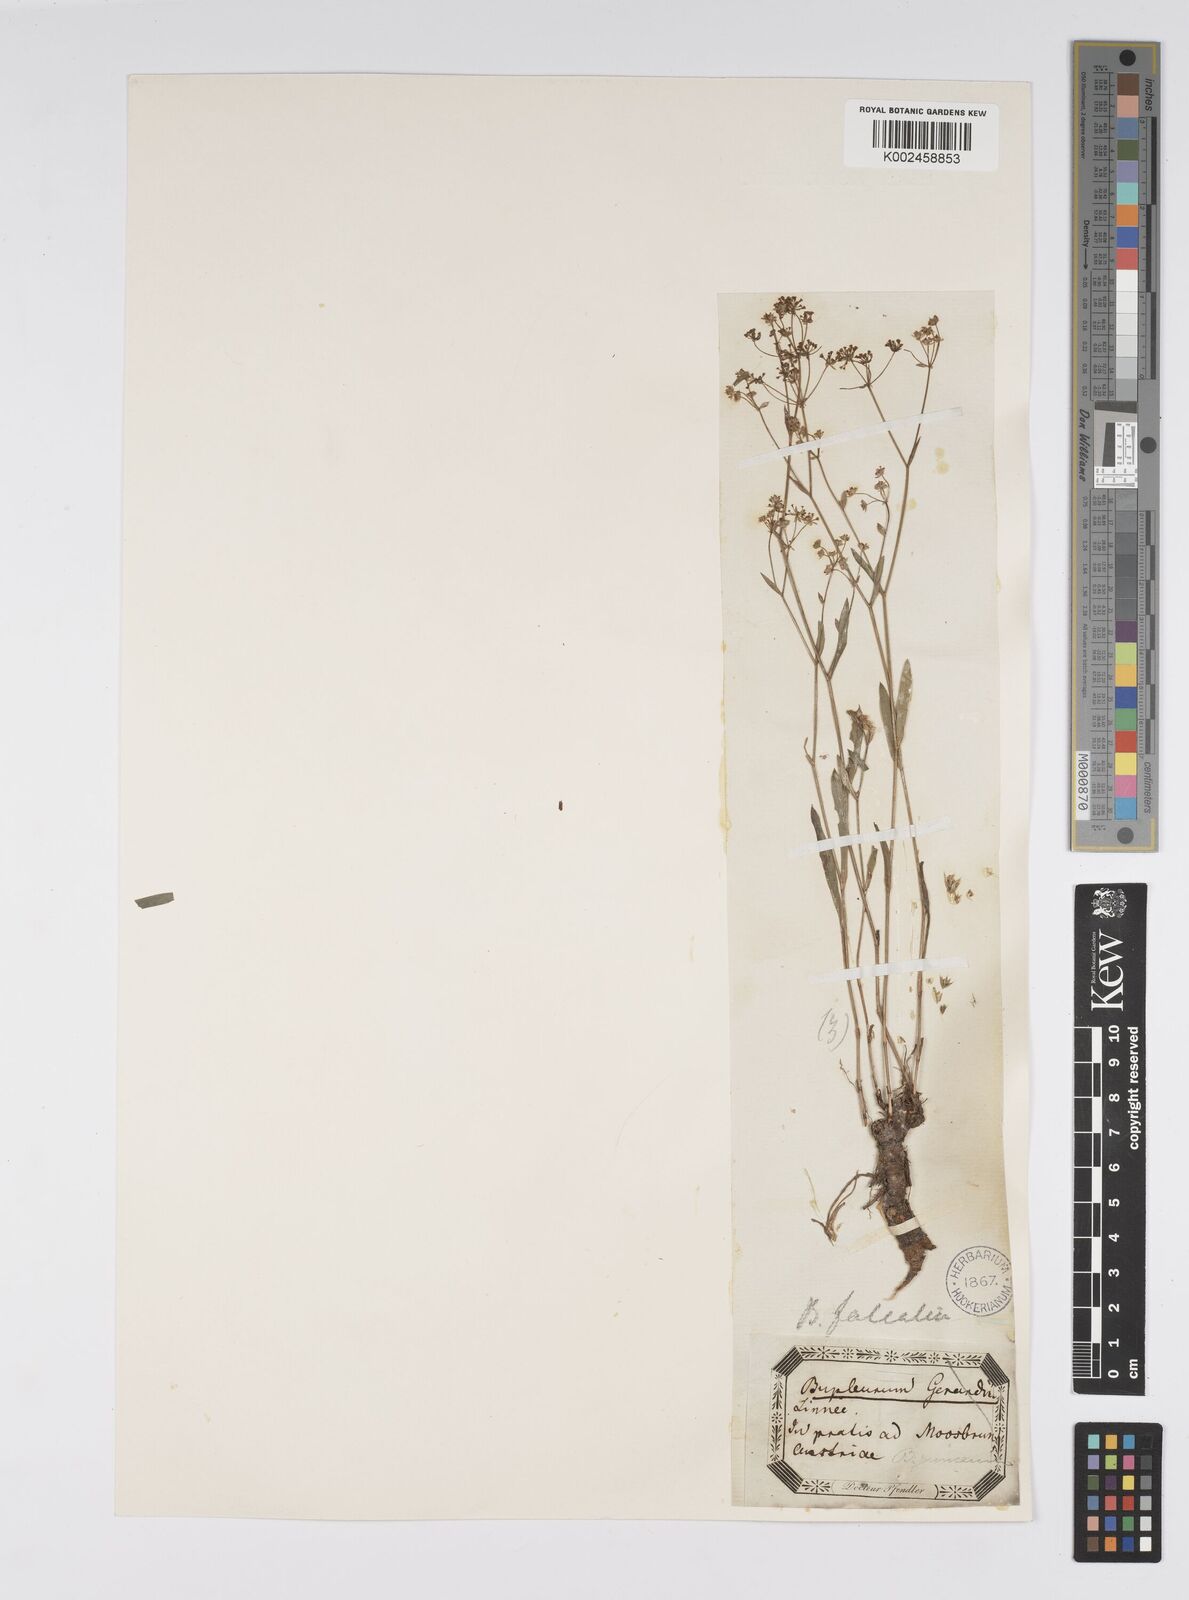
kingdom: Plantae
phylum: Tracheophyta
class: Magnoliopsida
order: Apiales
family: Apiaceae
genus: Bupleurum
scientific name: Bupleurum falcatum
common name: Sickle-leaved hare's-ear
